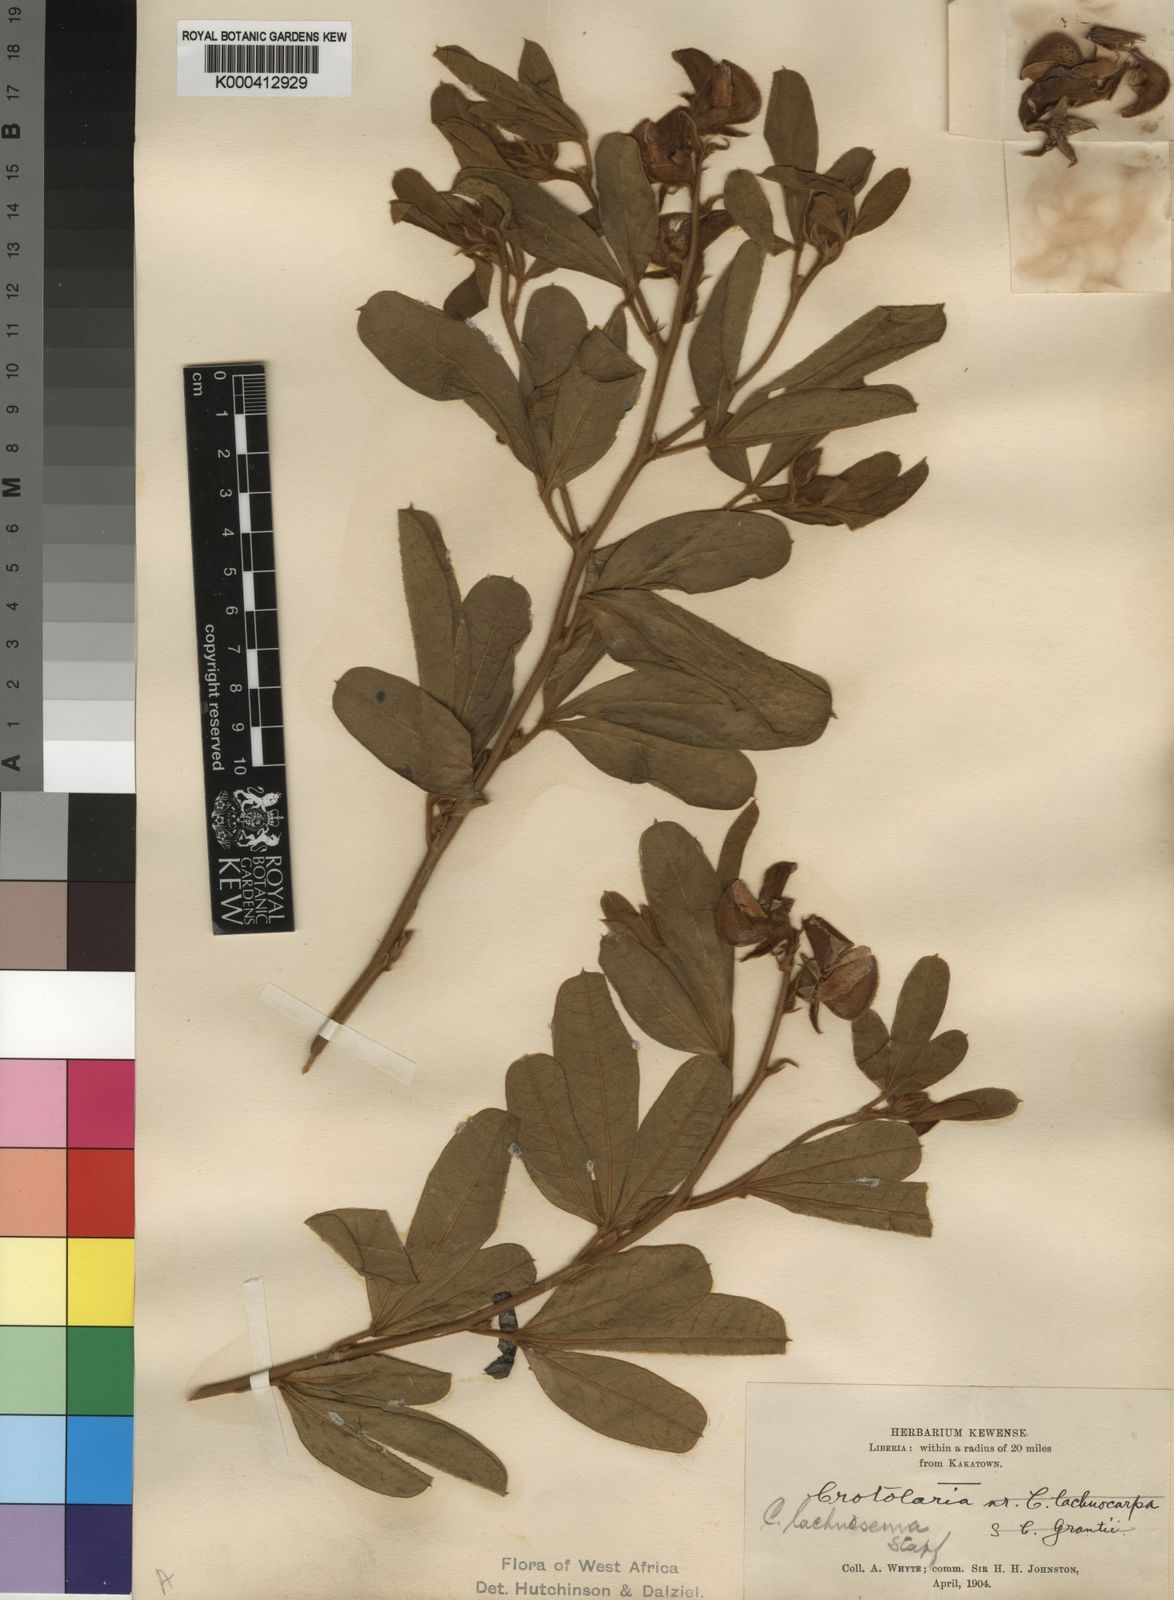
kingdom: Plantae
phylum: Tracheophyta
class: Magnoliopsida
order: Fabales
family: Fabaceae
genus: Crotalaria
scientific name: Crotalaria lachnosema
